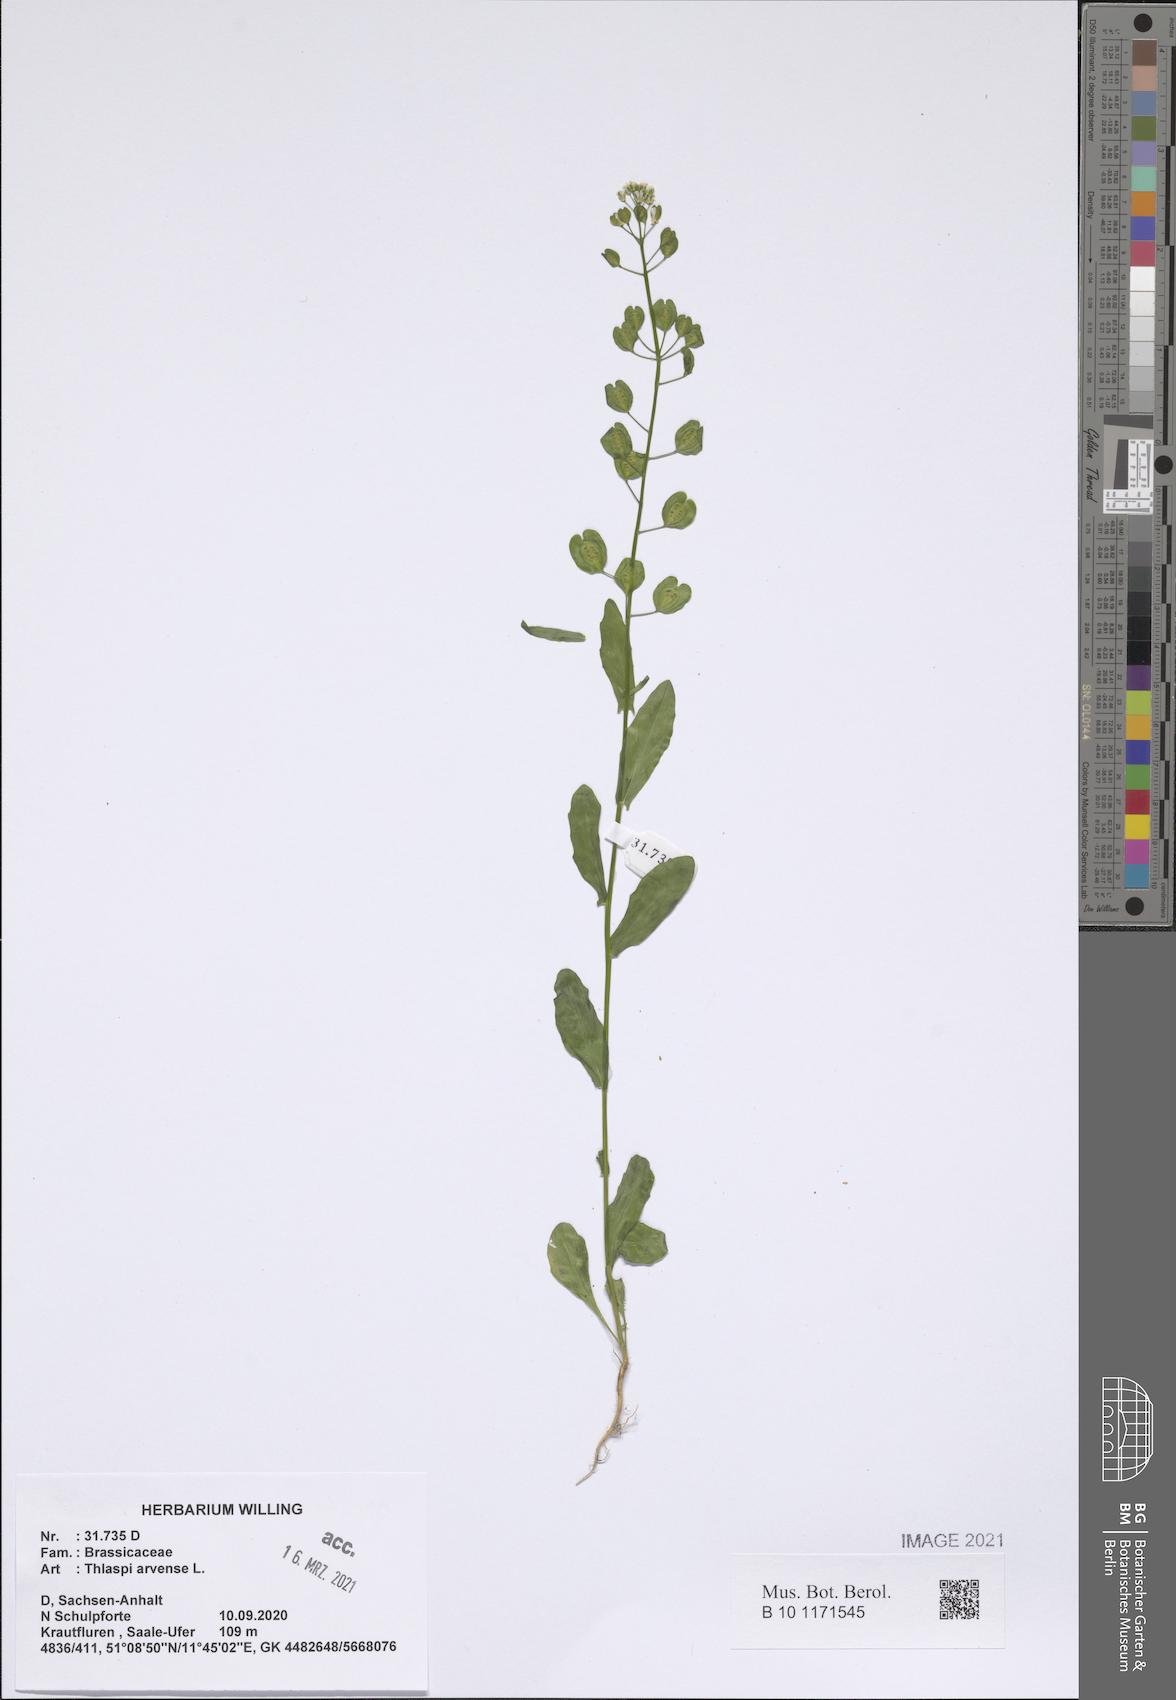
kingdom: Plantae
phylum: Tracheophyta
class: Magnoliopsida
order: Brassicales
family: Brassicaceae
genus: Thlaspi
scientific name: Thlaspi arvense
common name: Field pennycress
